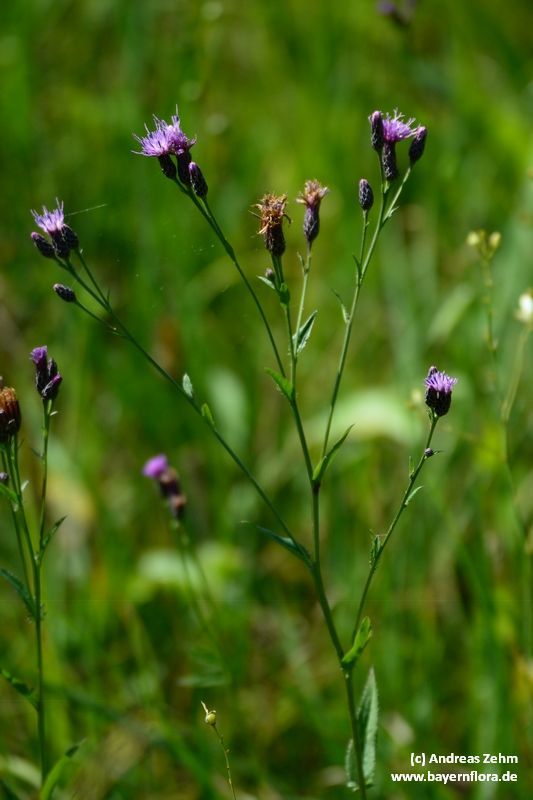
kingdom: Plantae
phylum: Tracheophyta
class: Magnoliopsida
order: Asterales
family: Asteraceae
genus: Serratula
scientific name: Serratula tinctoria
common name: Saw-wort
